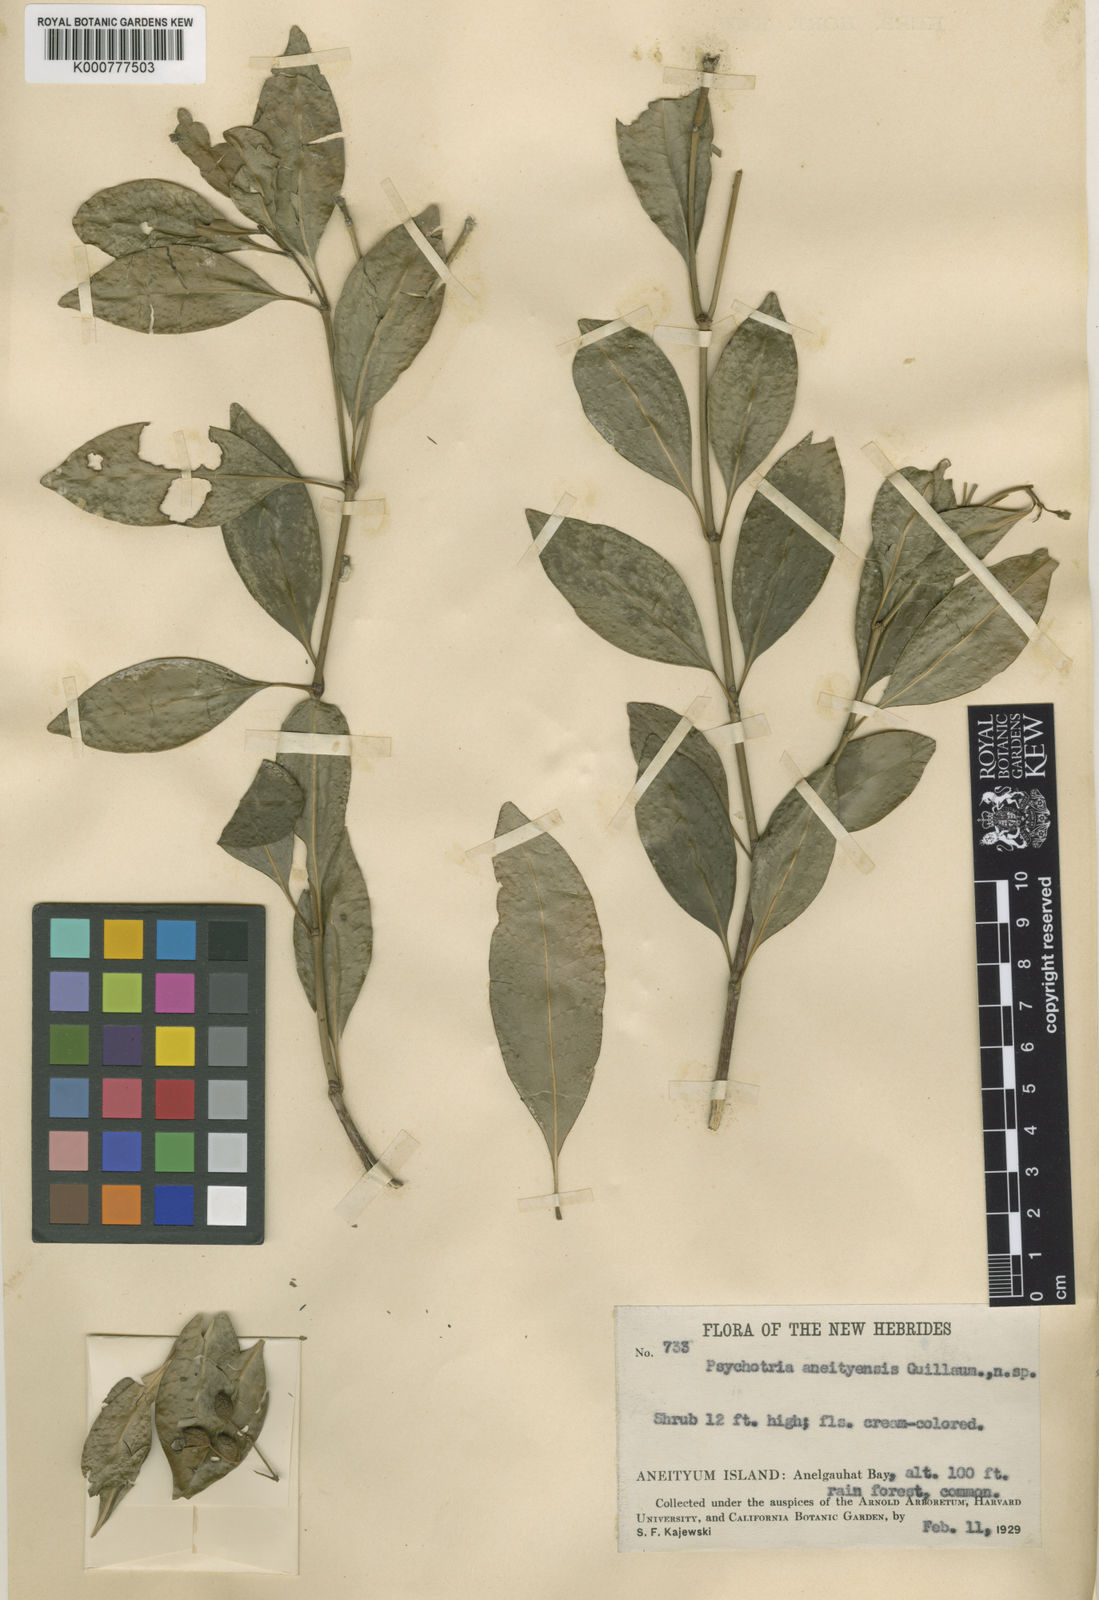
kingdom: Plantae
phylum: Tracheophyta
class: Magnoliopsida
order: Gentianales
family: Rubiaceae
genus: Eumachia
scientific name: Eumachia aneityensis
